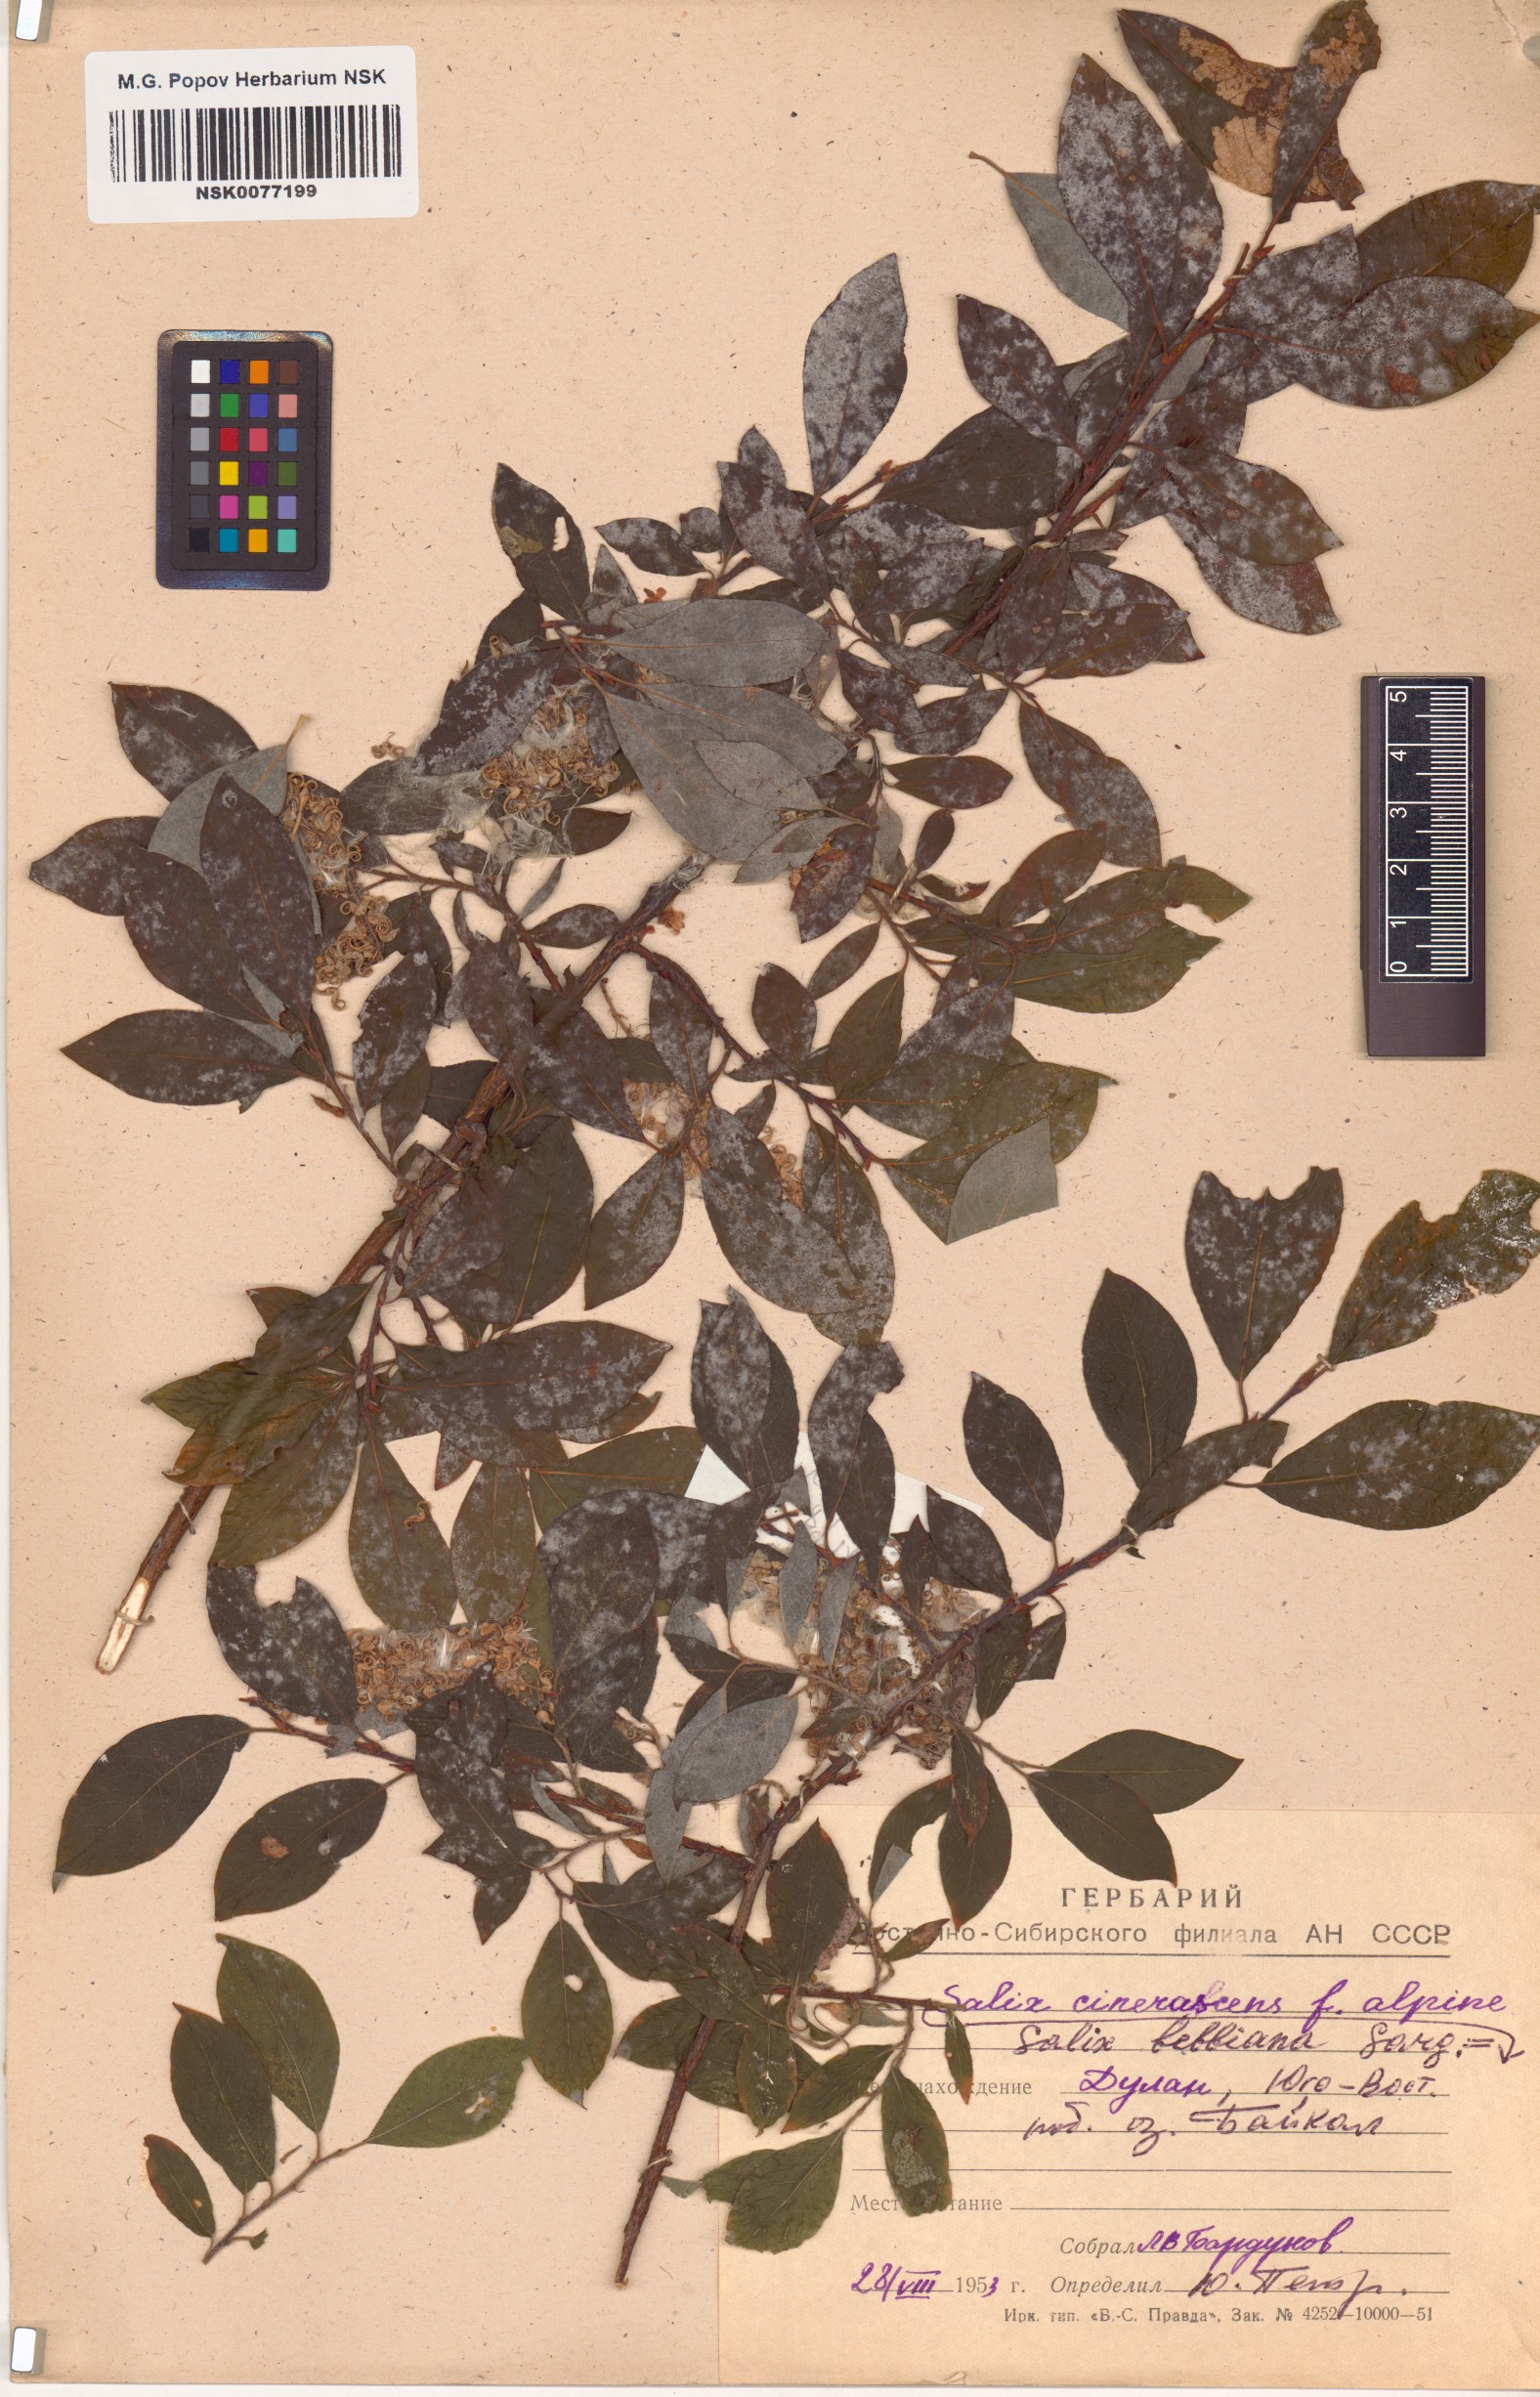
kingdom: Plantae
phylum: Tracheophyta
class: Magnoliopsida
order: Malpighiales
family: Salicaceae
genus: Salix
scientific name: Salix bebbiana
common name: Bebb's willow
